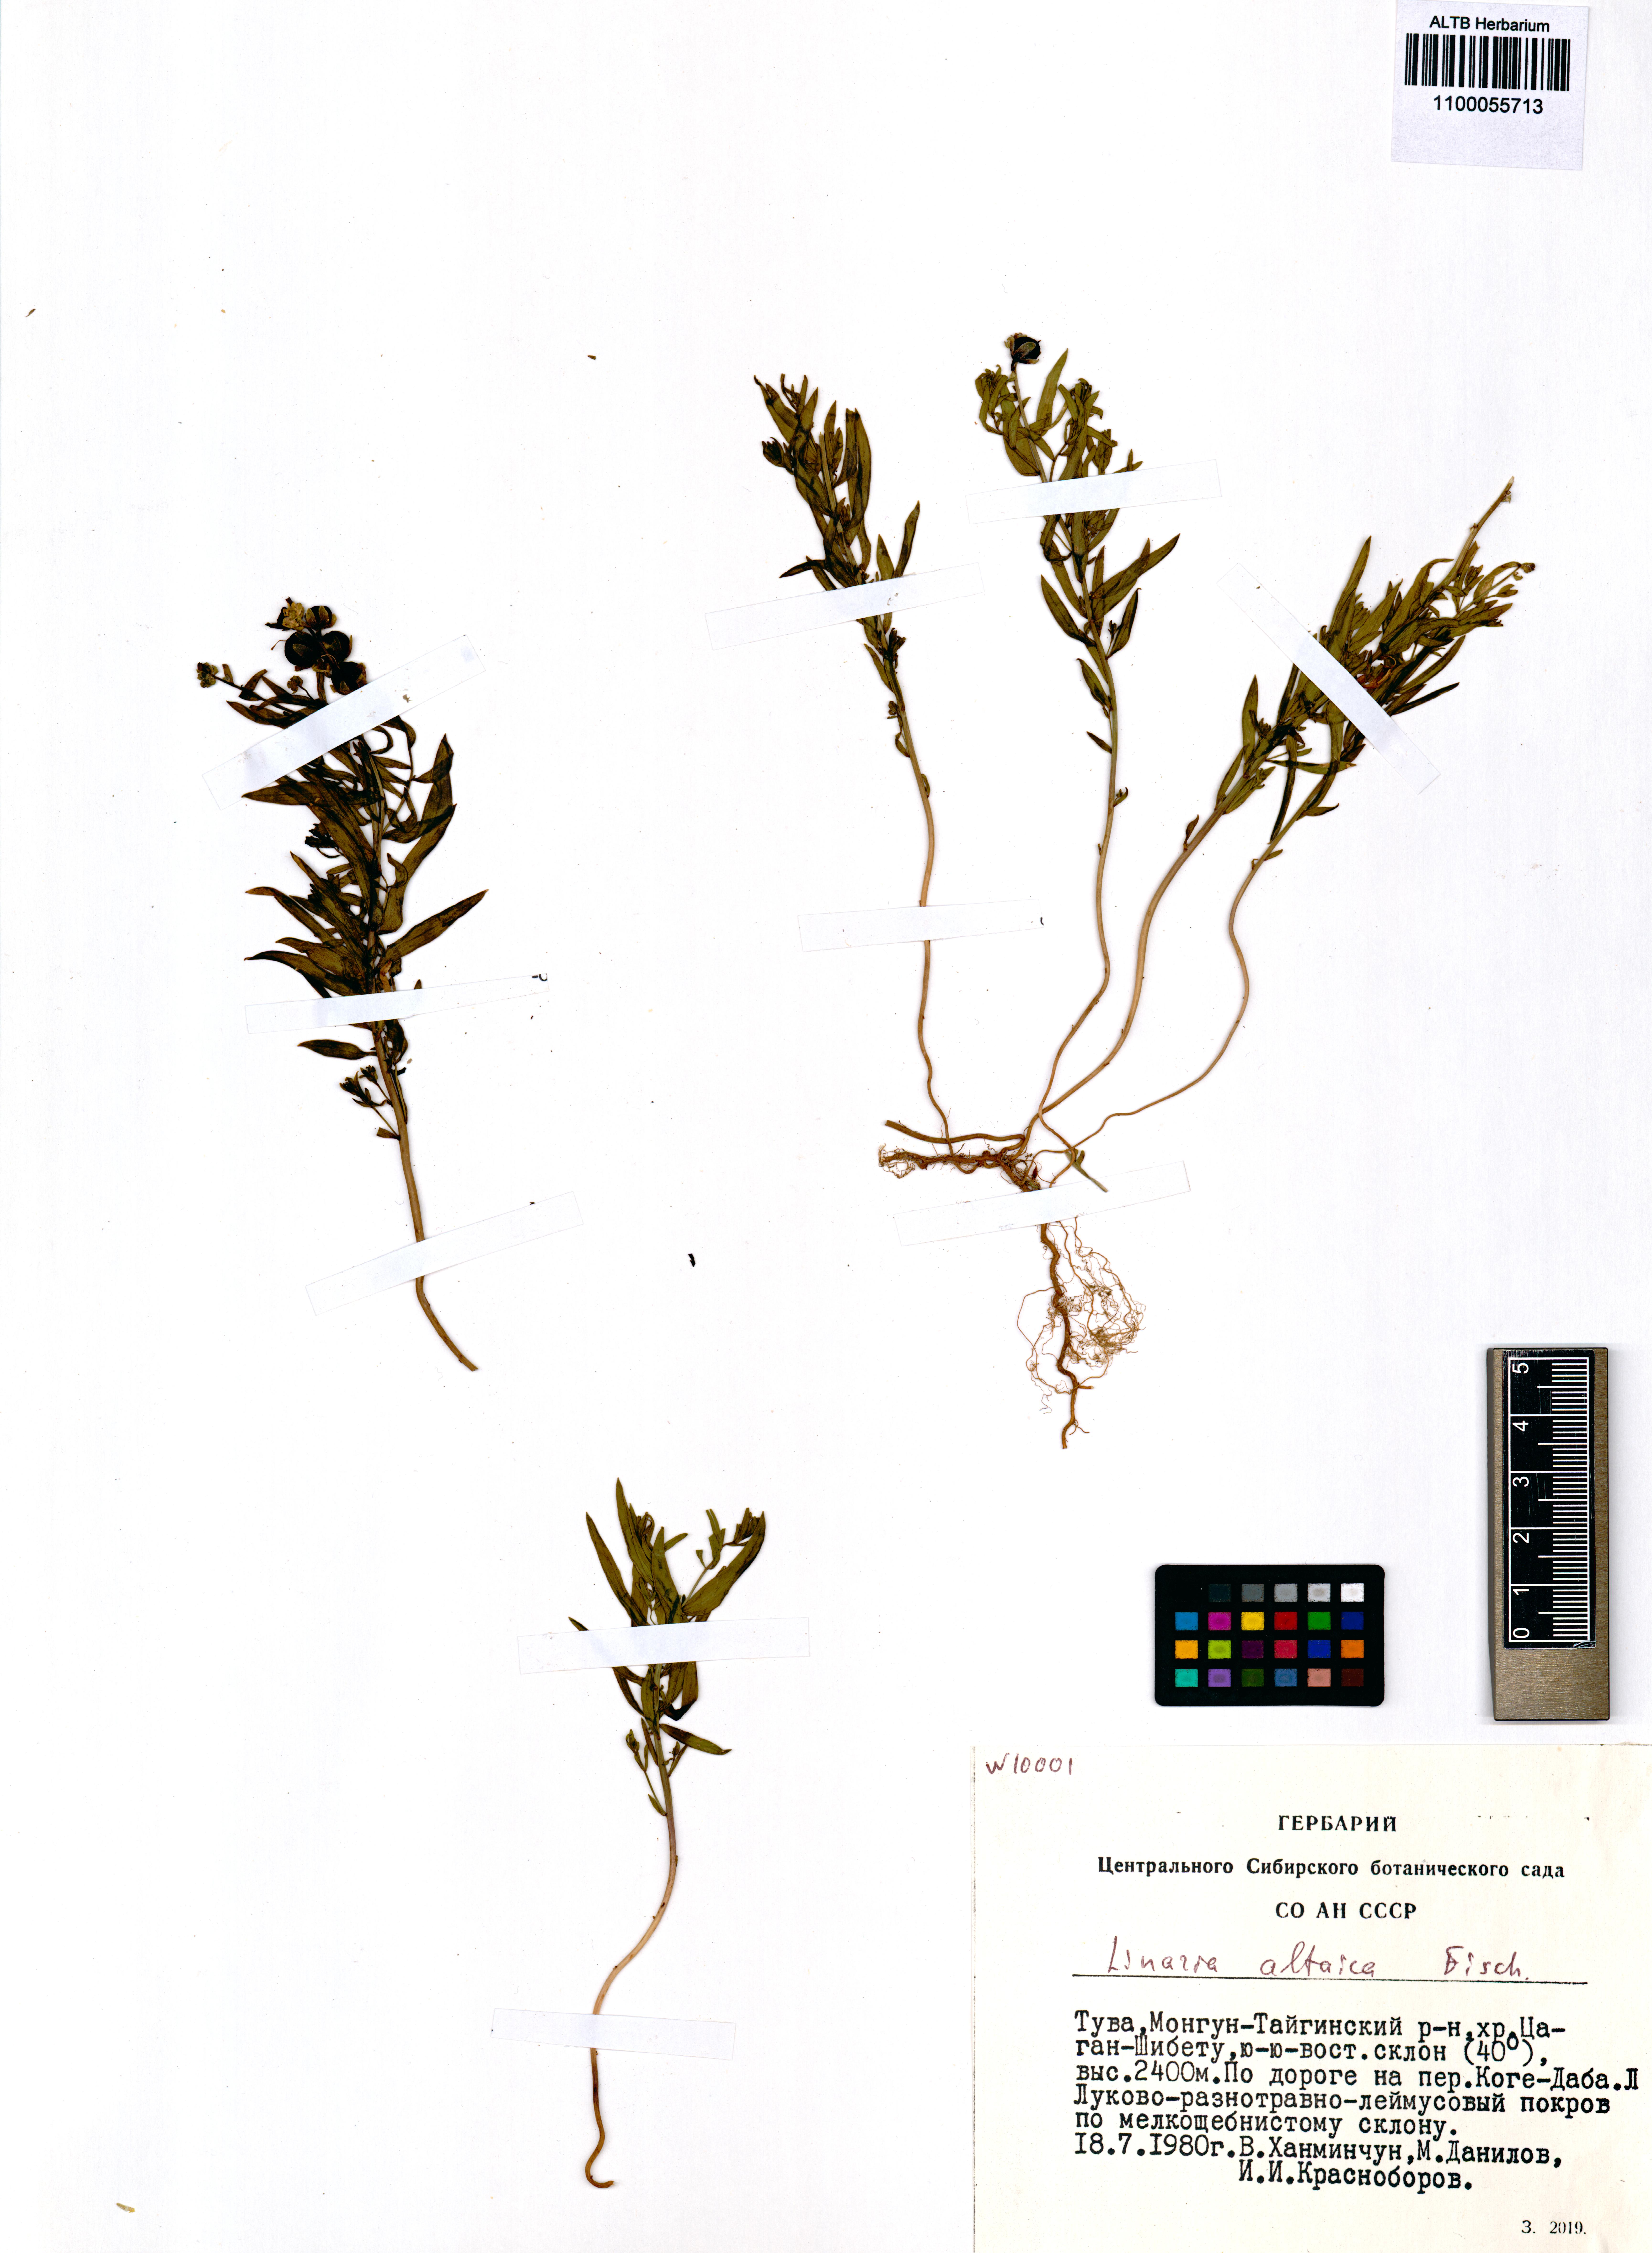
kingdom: Plantae
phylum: Tracheophyta
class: Magnoliopsida
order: Lamiales
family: Plantaginaceae
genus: Linaria
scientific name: Linaria altaica
